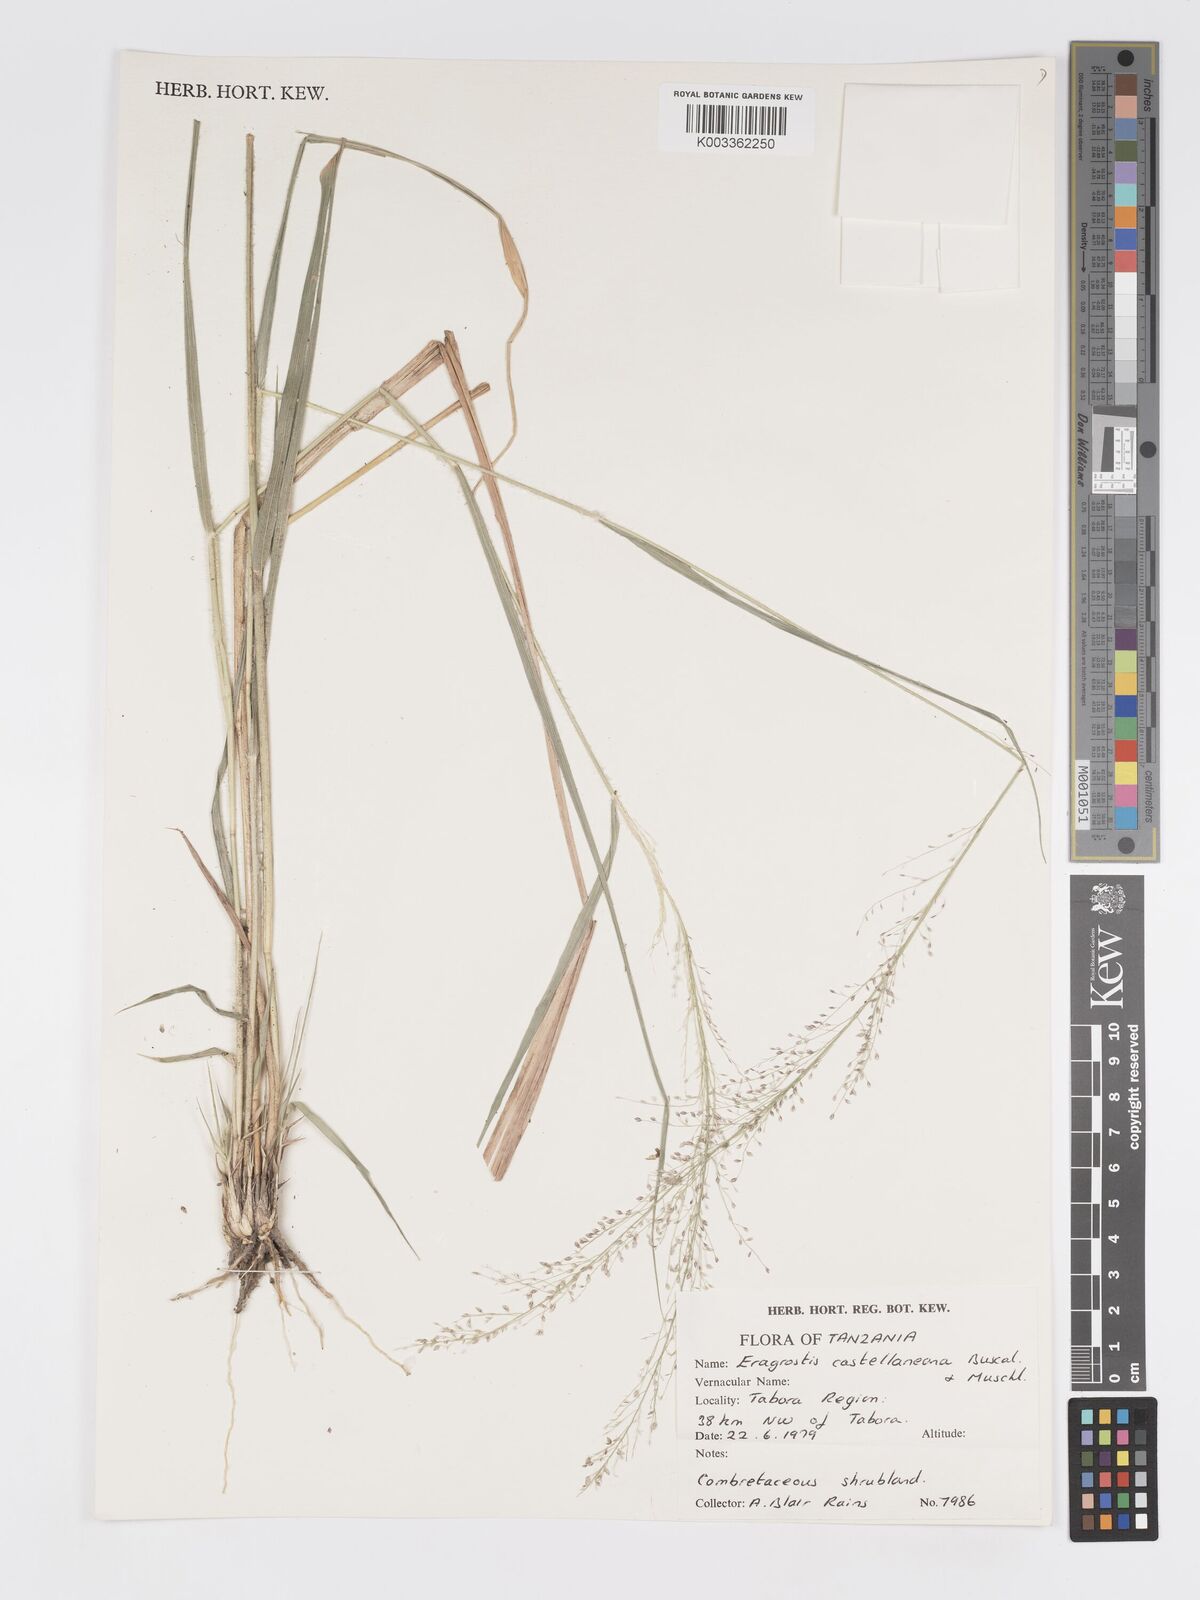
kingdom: Plantae
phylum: Tracheophyta
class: Liliopsida
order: Poales
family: Poaceae
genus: Eragrostis
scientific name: Eragrostis castellaneana
